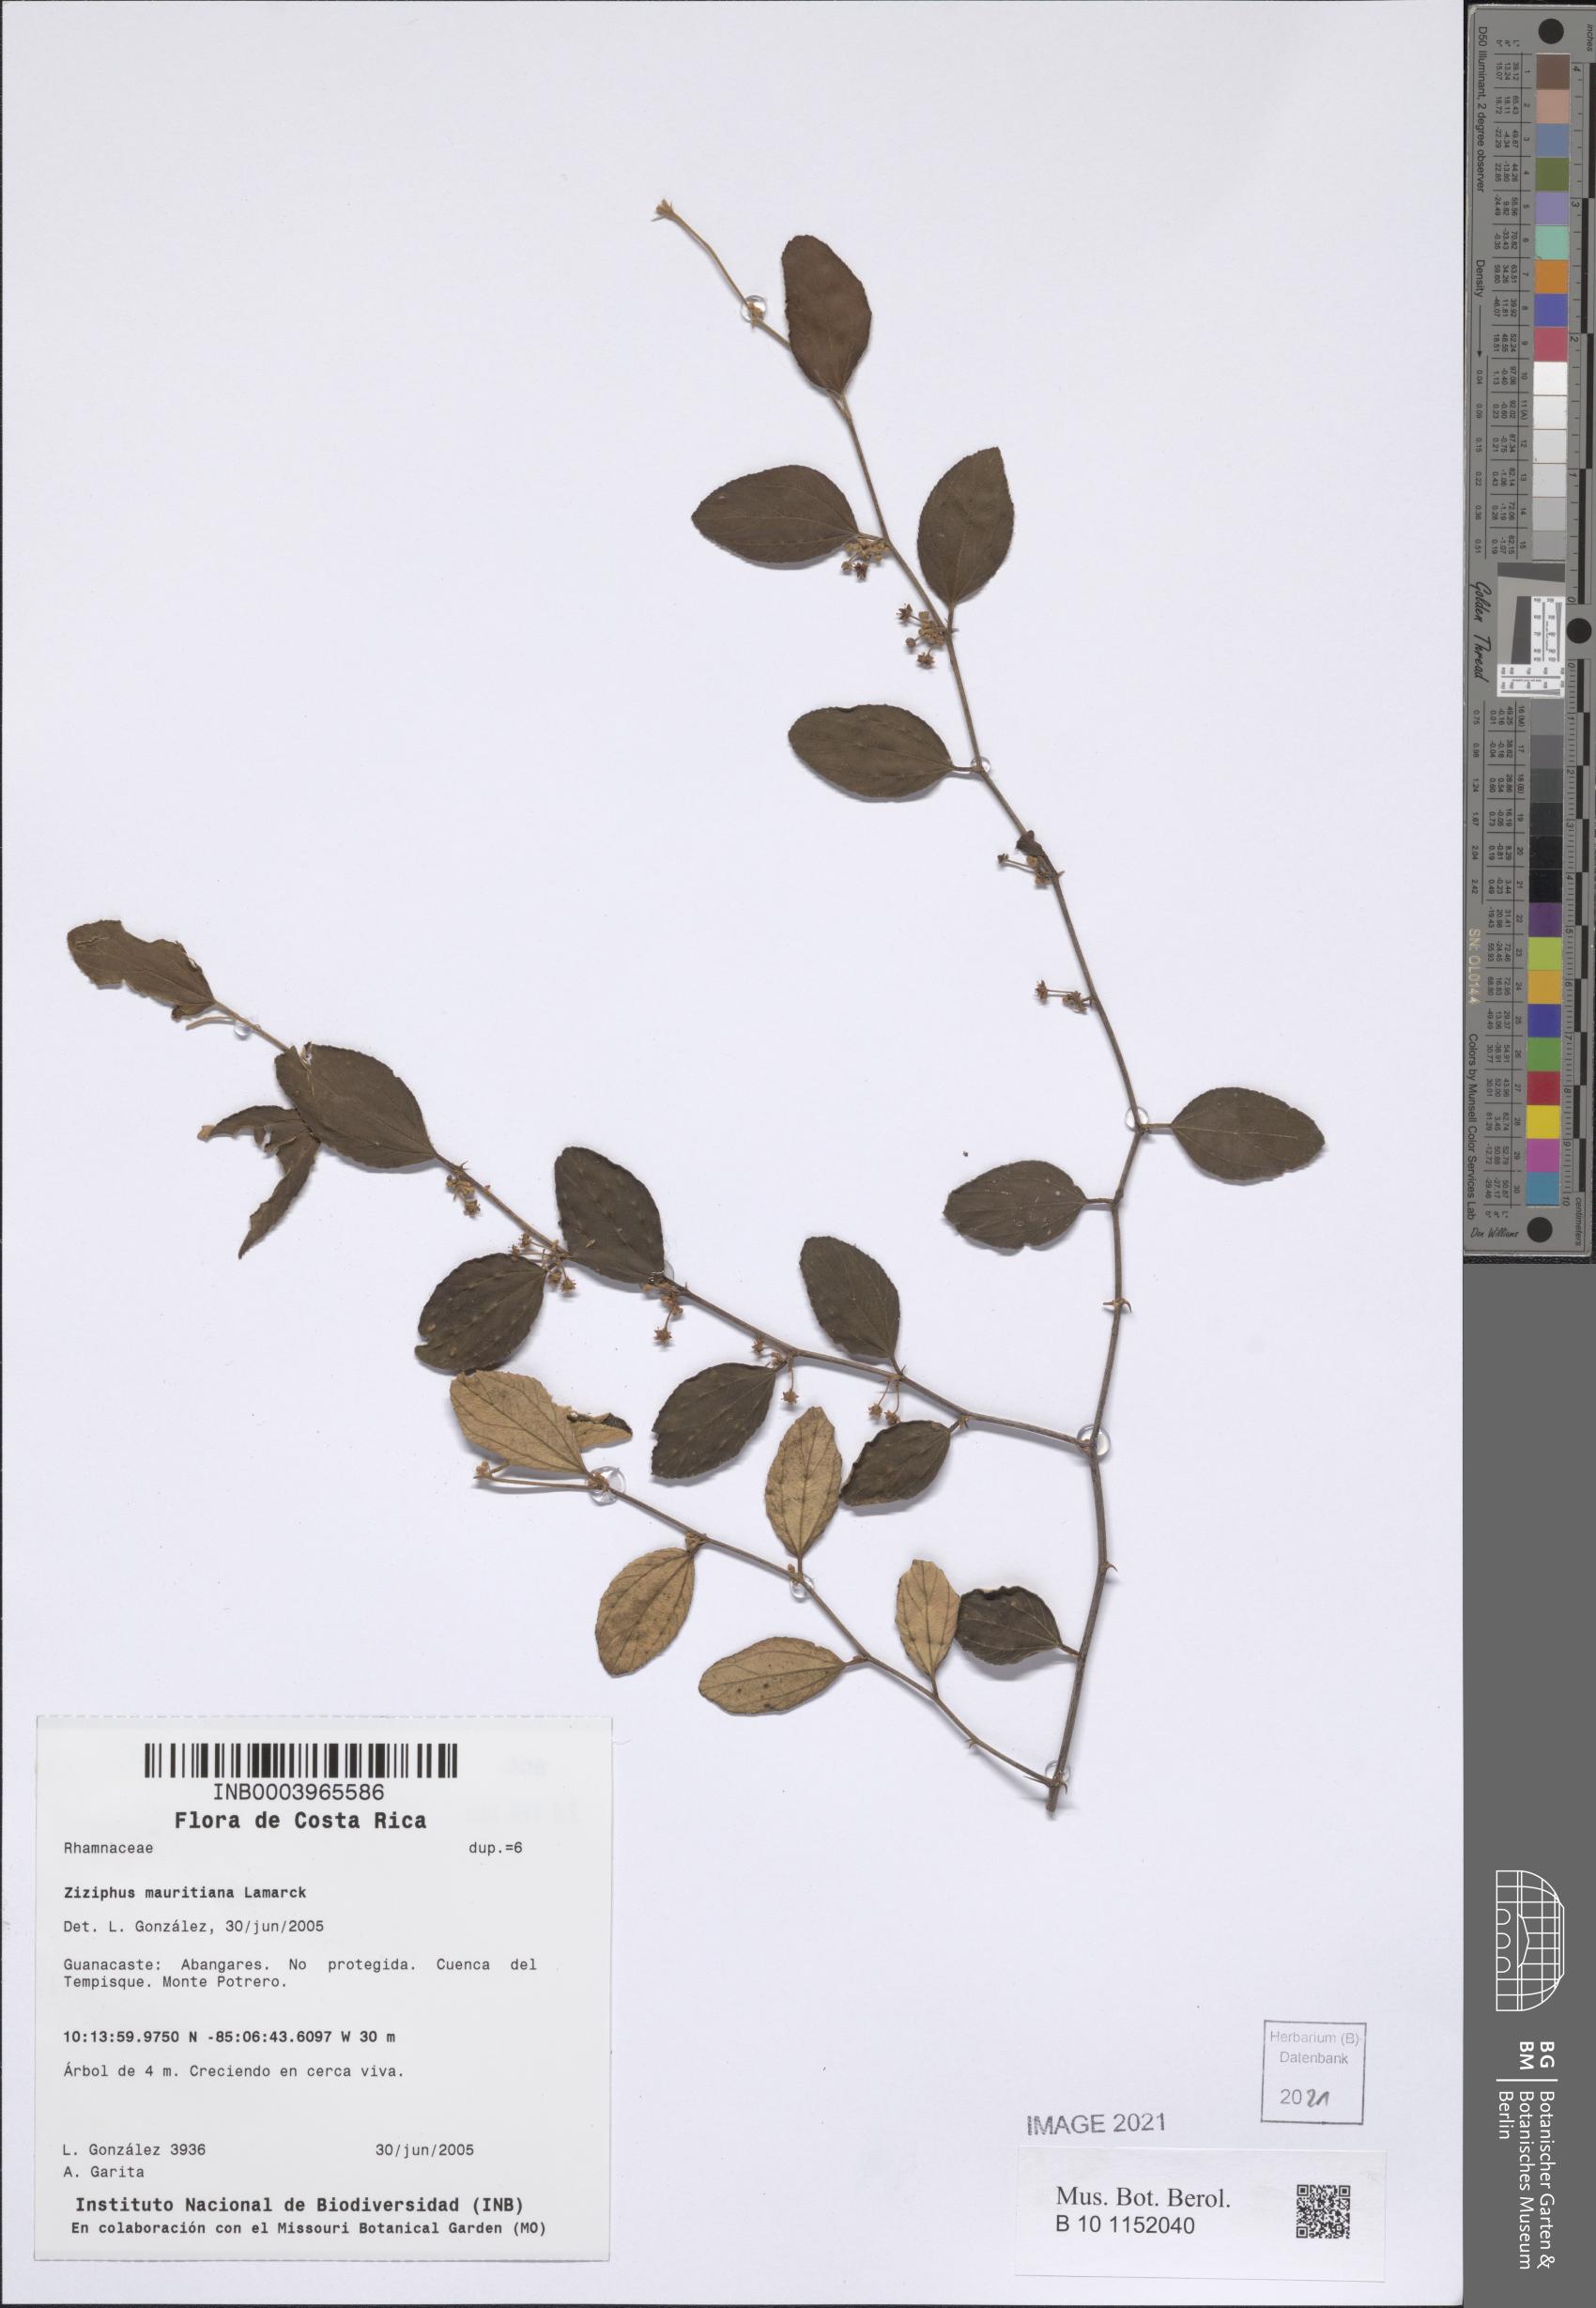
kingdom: Plantae
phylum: Tracheophyta
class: Magnoliopsida
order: Rosales
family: Rhamnaceae
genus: Ziziphus
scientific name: Ziziphus mauritiana
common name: Indian jujube
